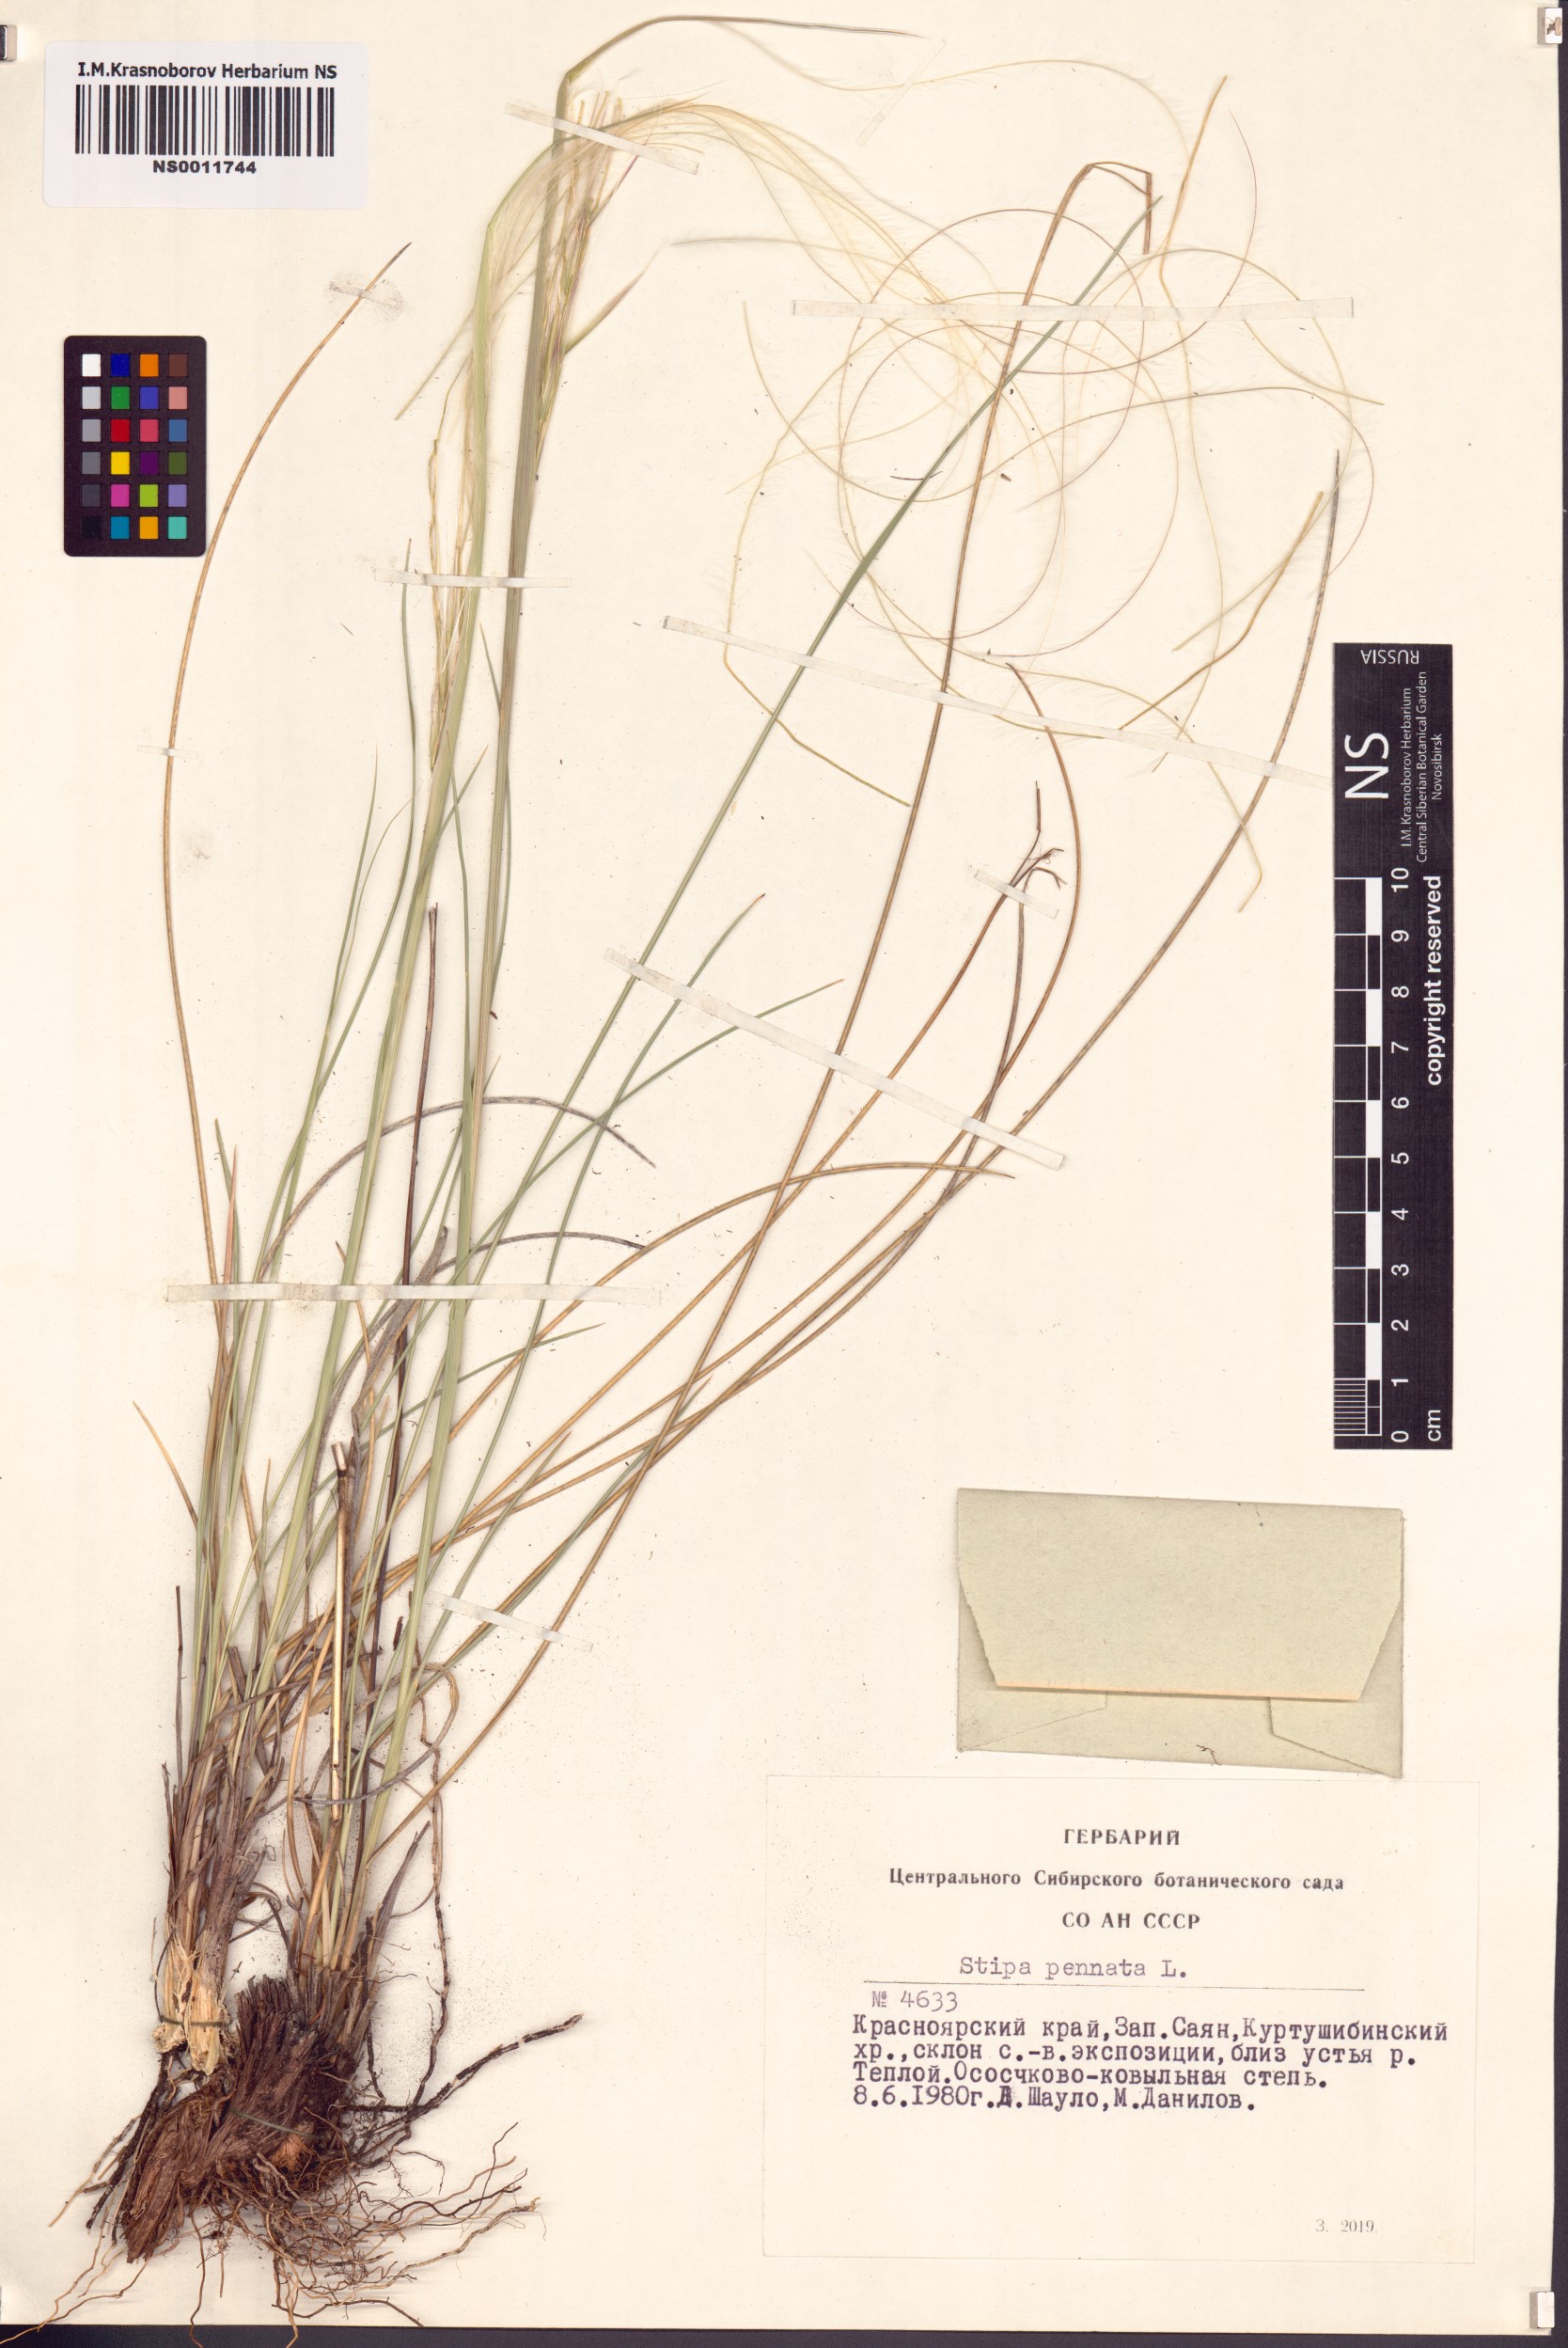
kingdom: Plantae
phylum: Tracheophyta
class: Liliopsida
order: Poales
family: Poaceae
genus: Stipa
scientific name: Stipa pennata
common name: European feather grass
